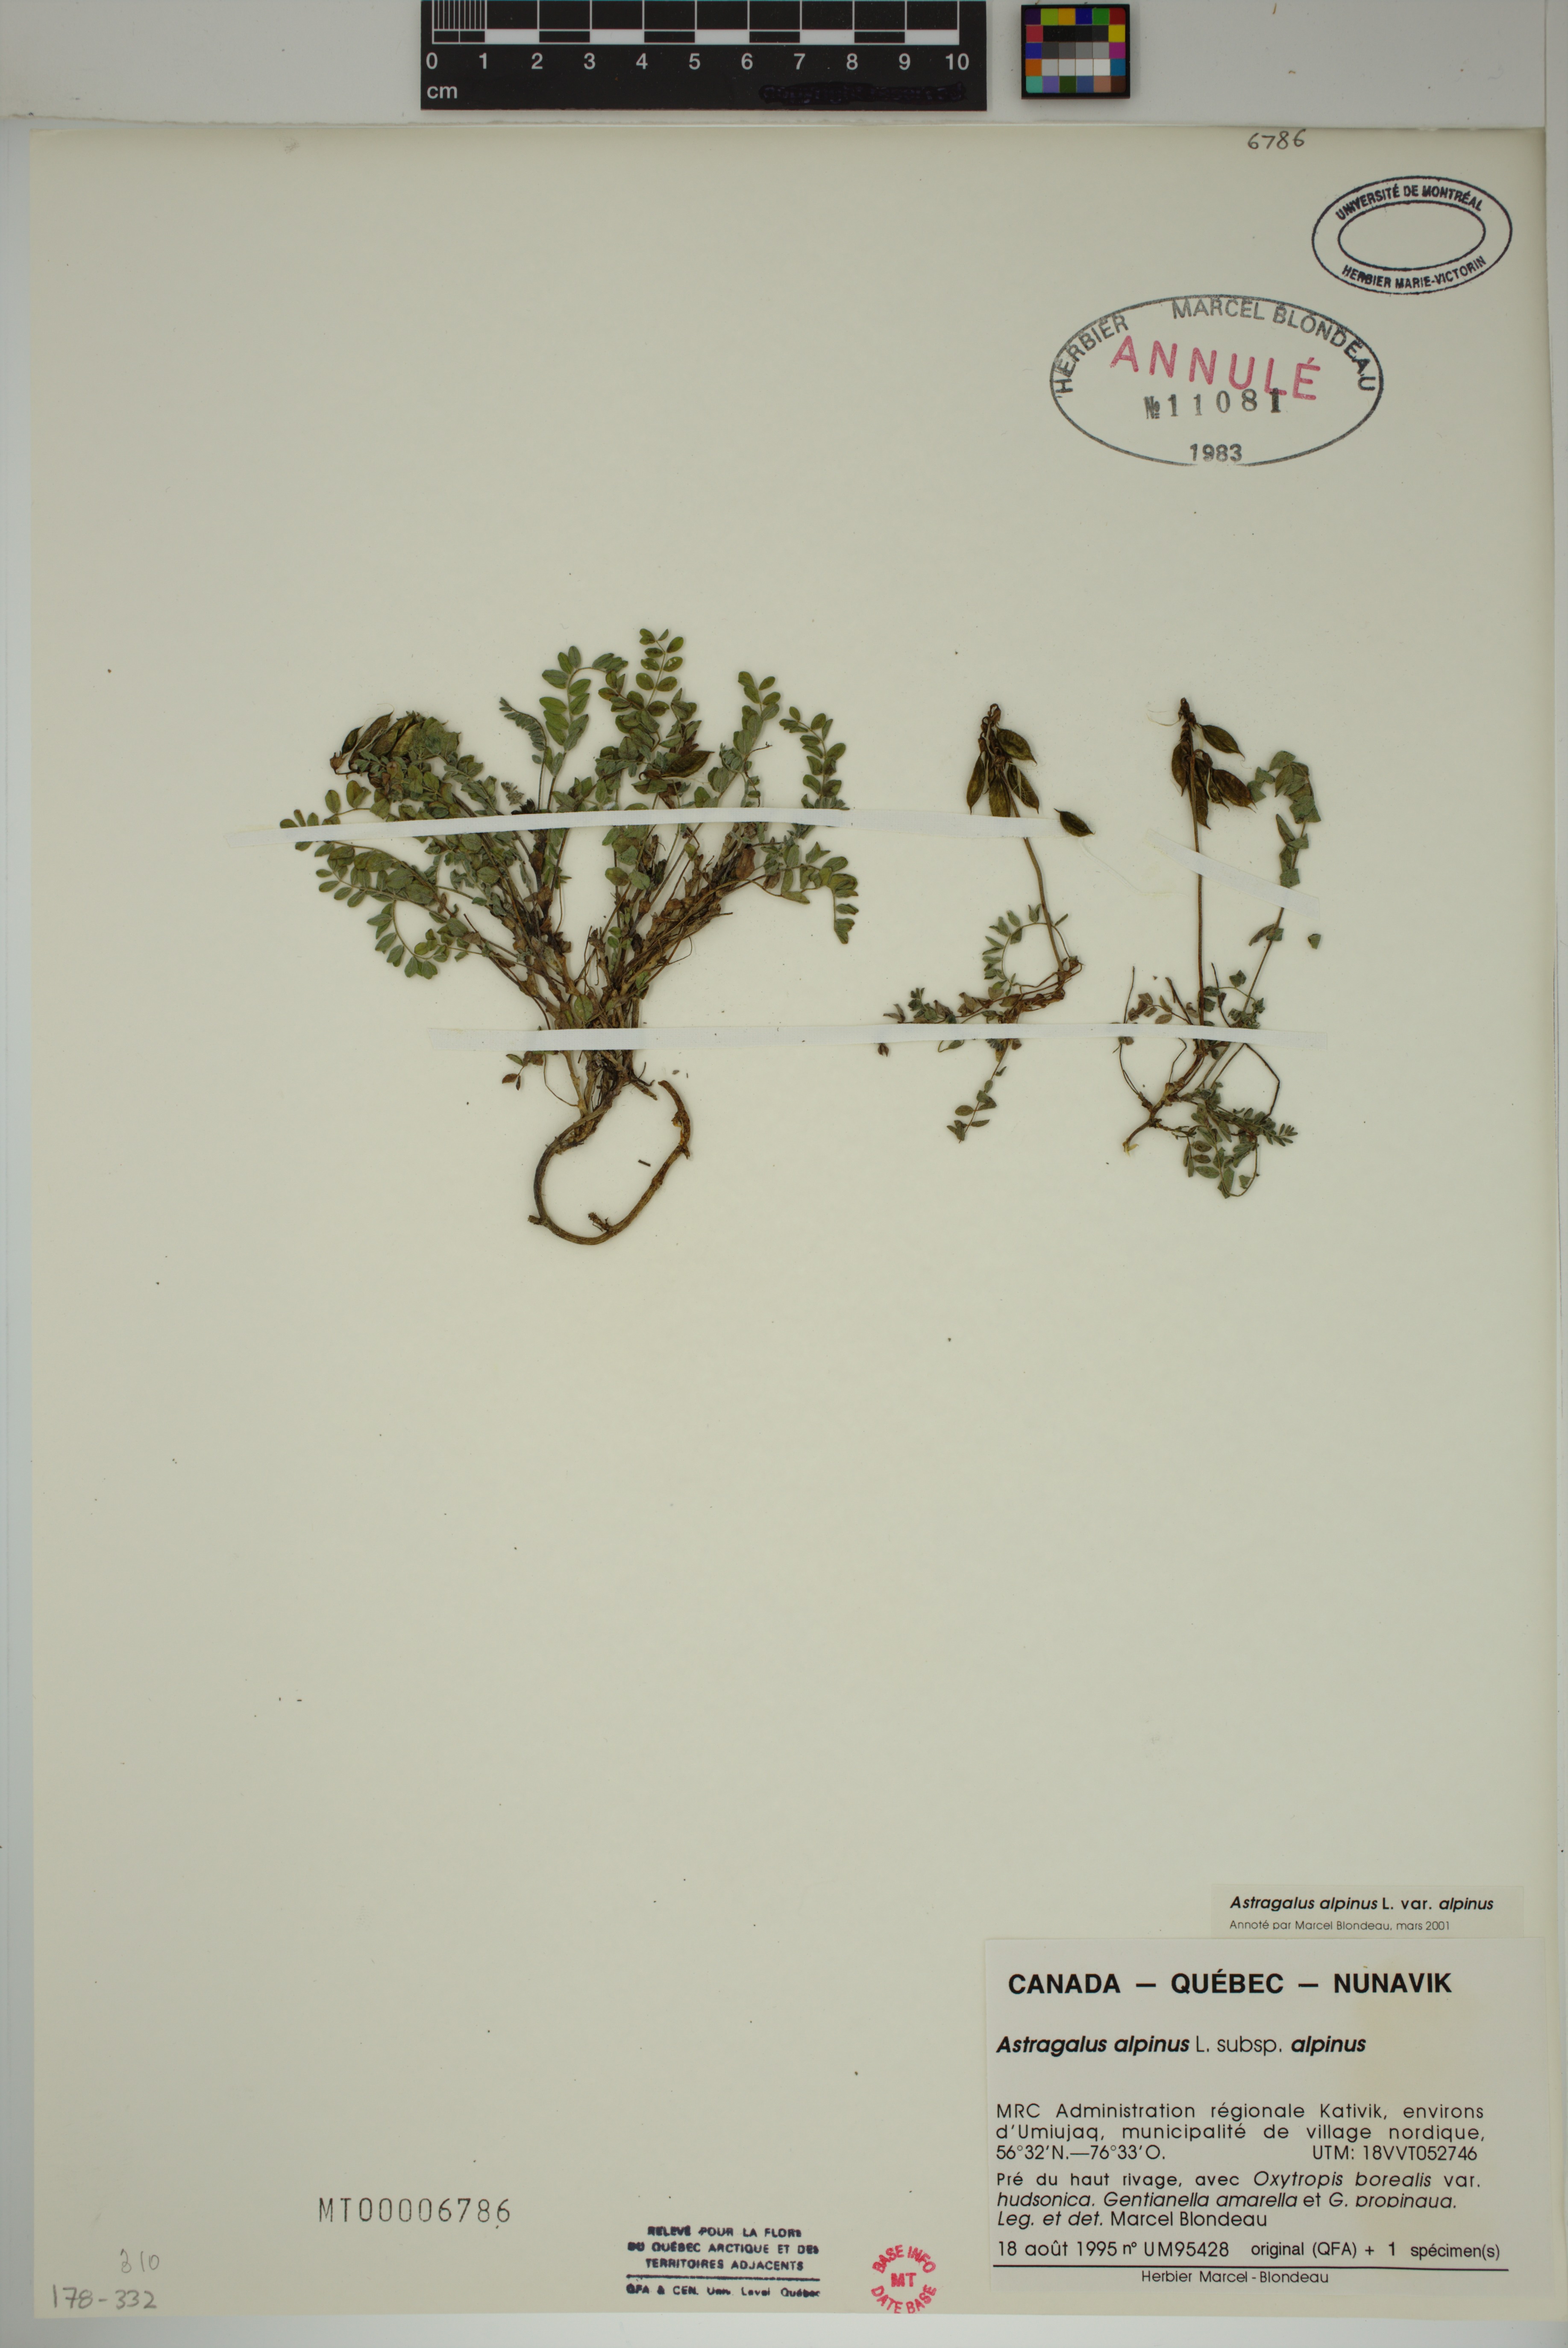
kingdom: Plantae
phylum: Tracheophyta
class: Magnoliopsida
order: Fabales
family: Fabaceae
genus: Astragalus
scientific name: Astragalus alpinus
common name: Alpine milk-vetch
